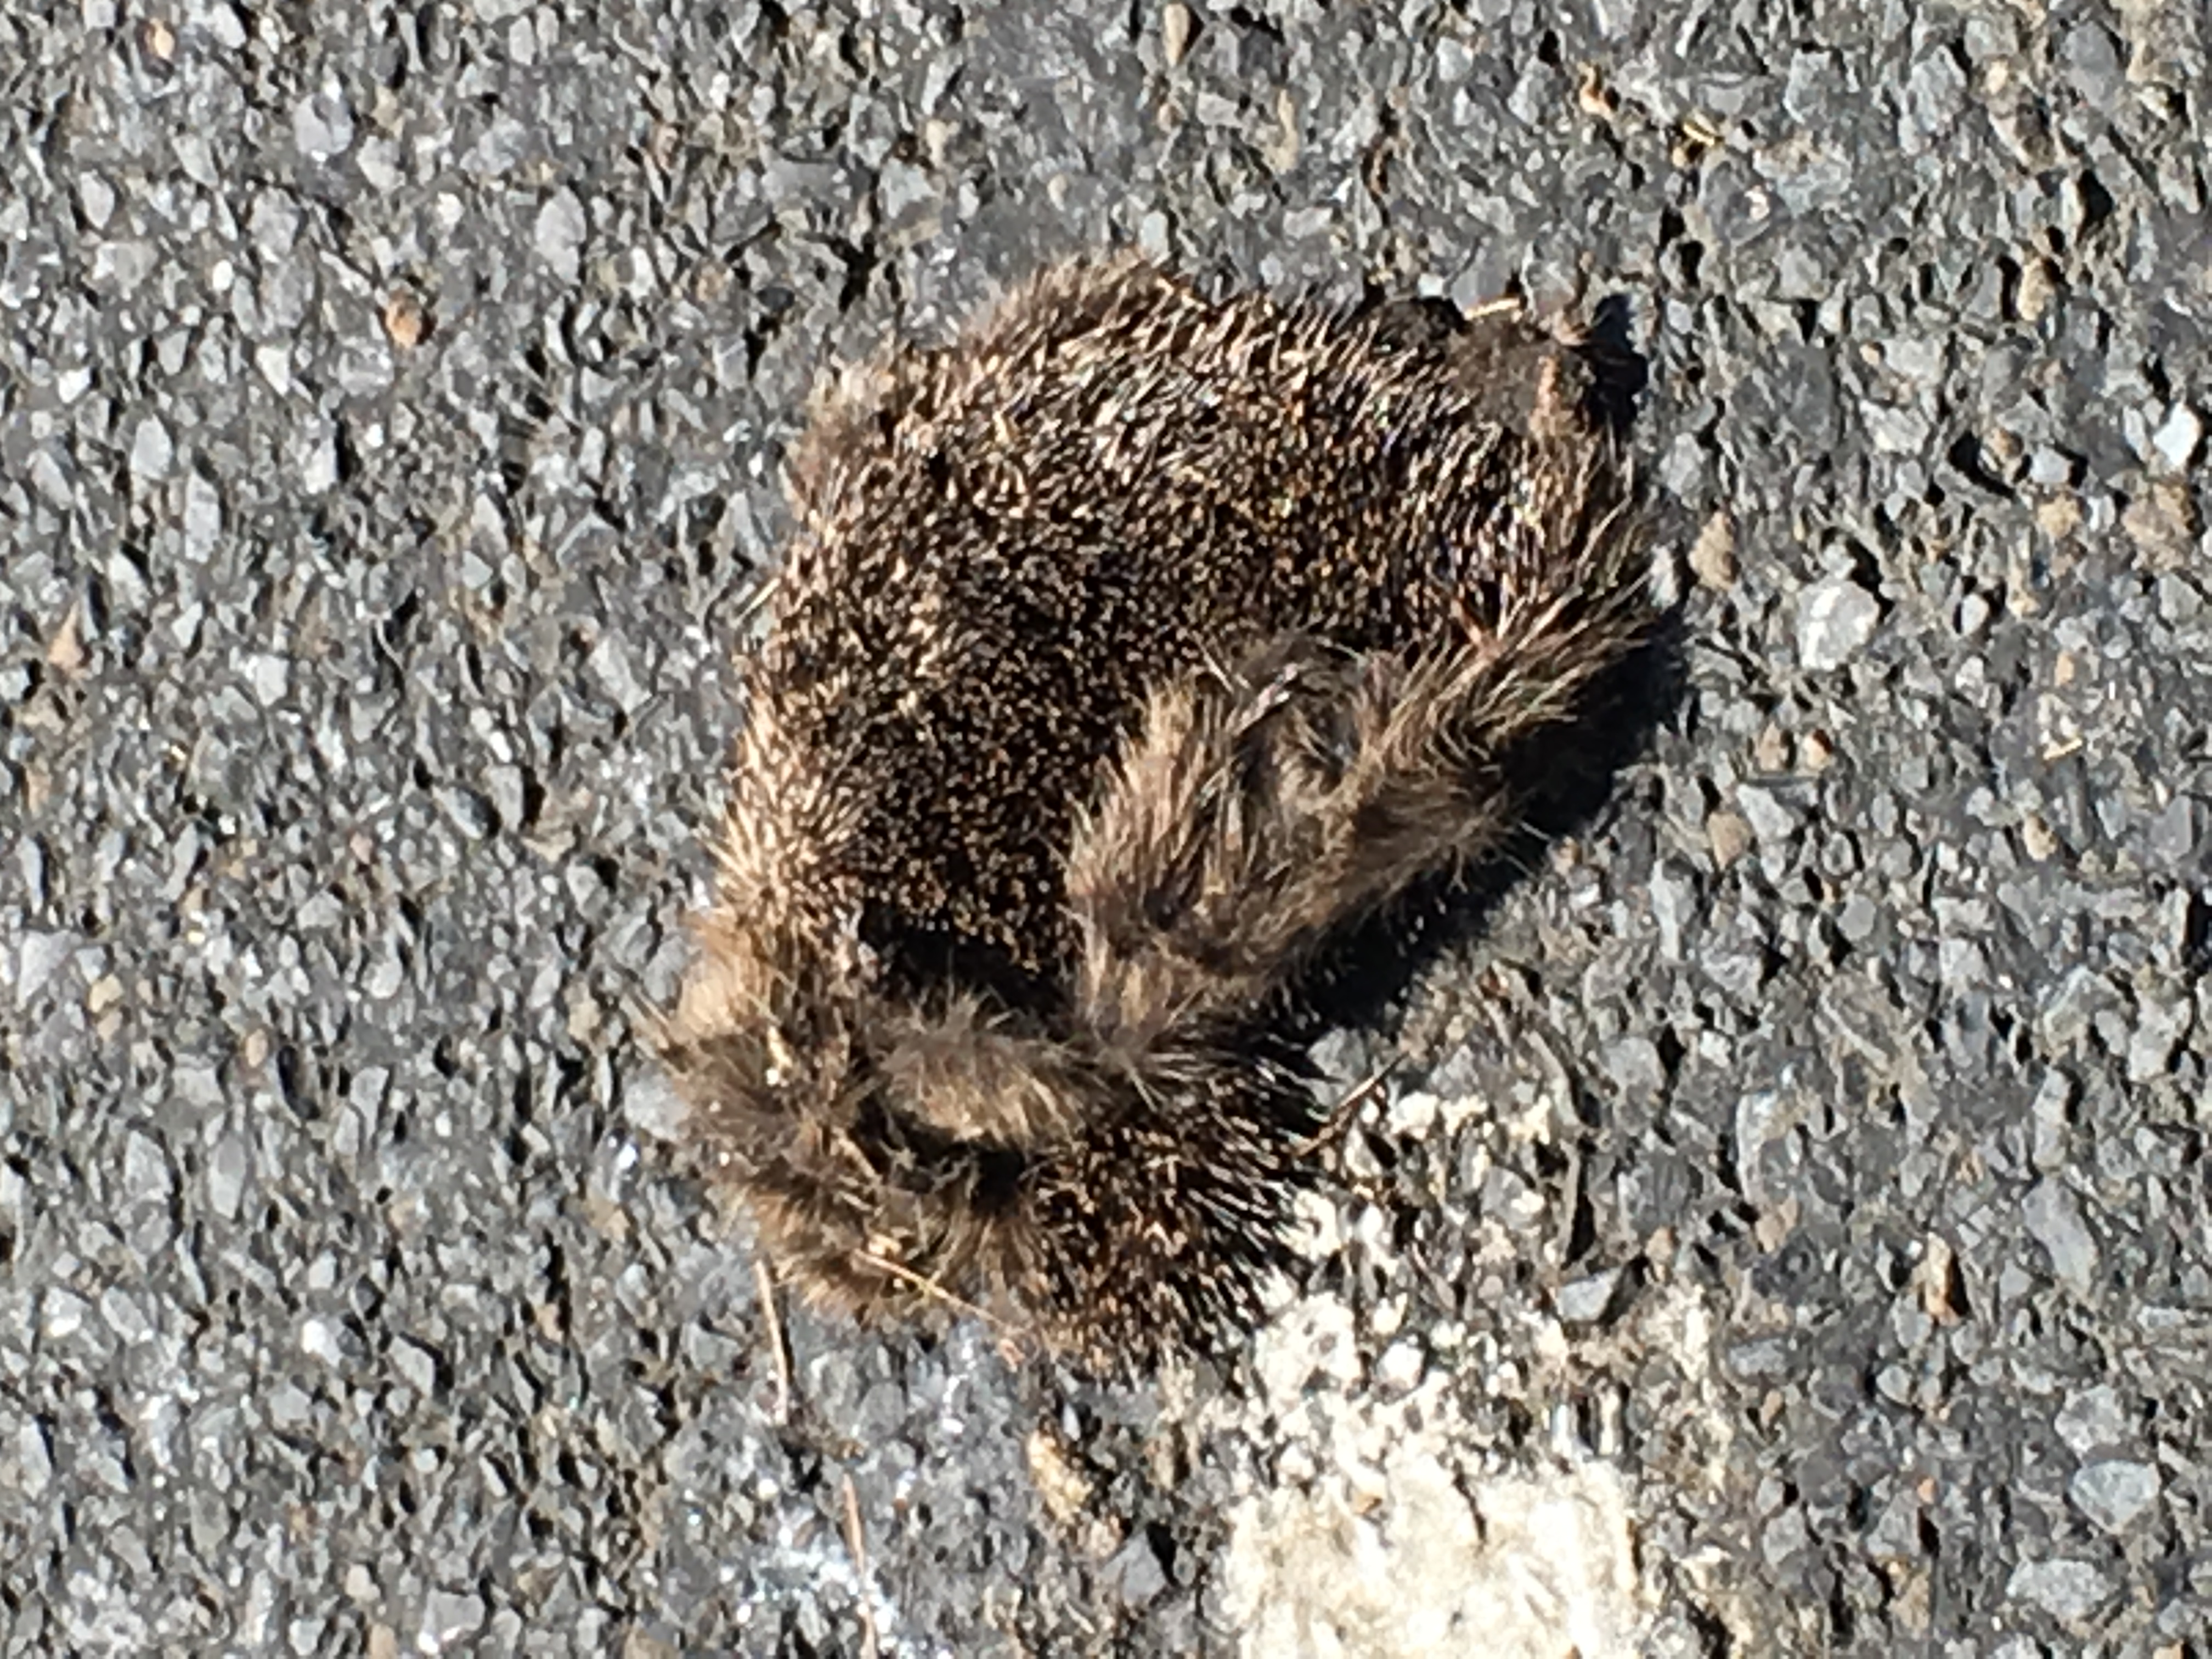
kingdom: Animalia
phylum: Chordata
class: Mammalia
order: Erinaceomorpha
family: Erinaceidae
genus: Erinaceus
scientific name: Erinaceus
